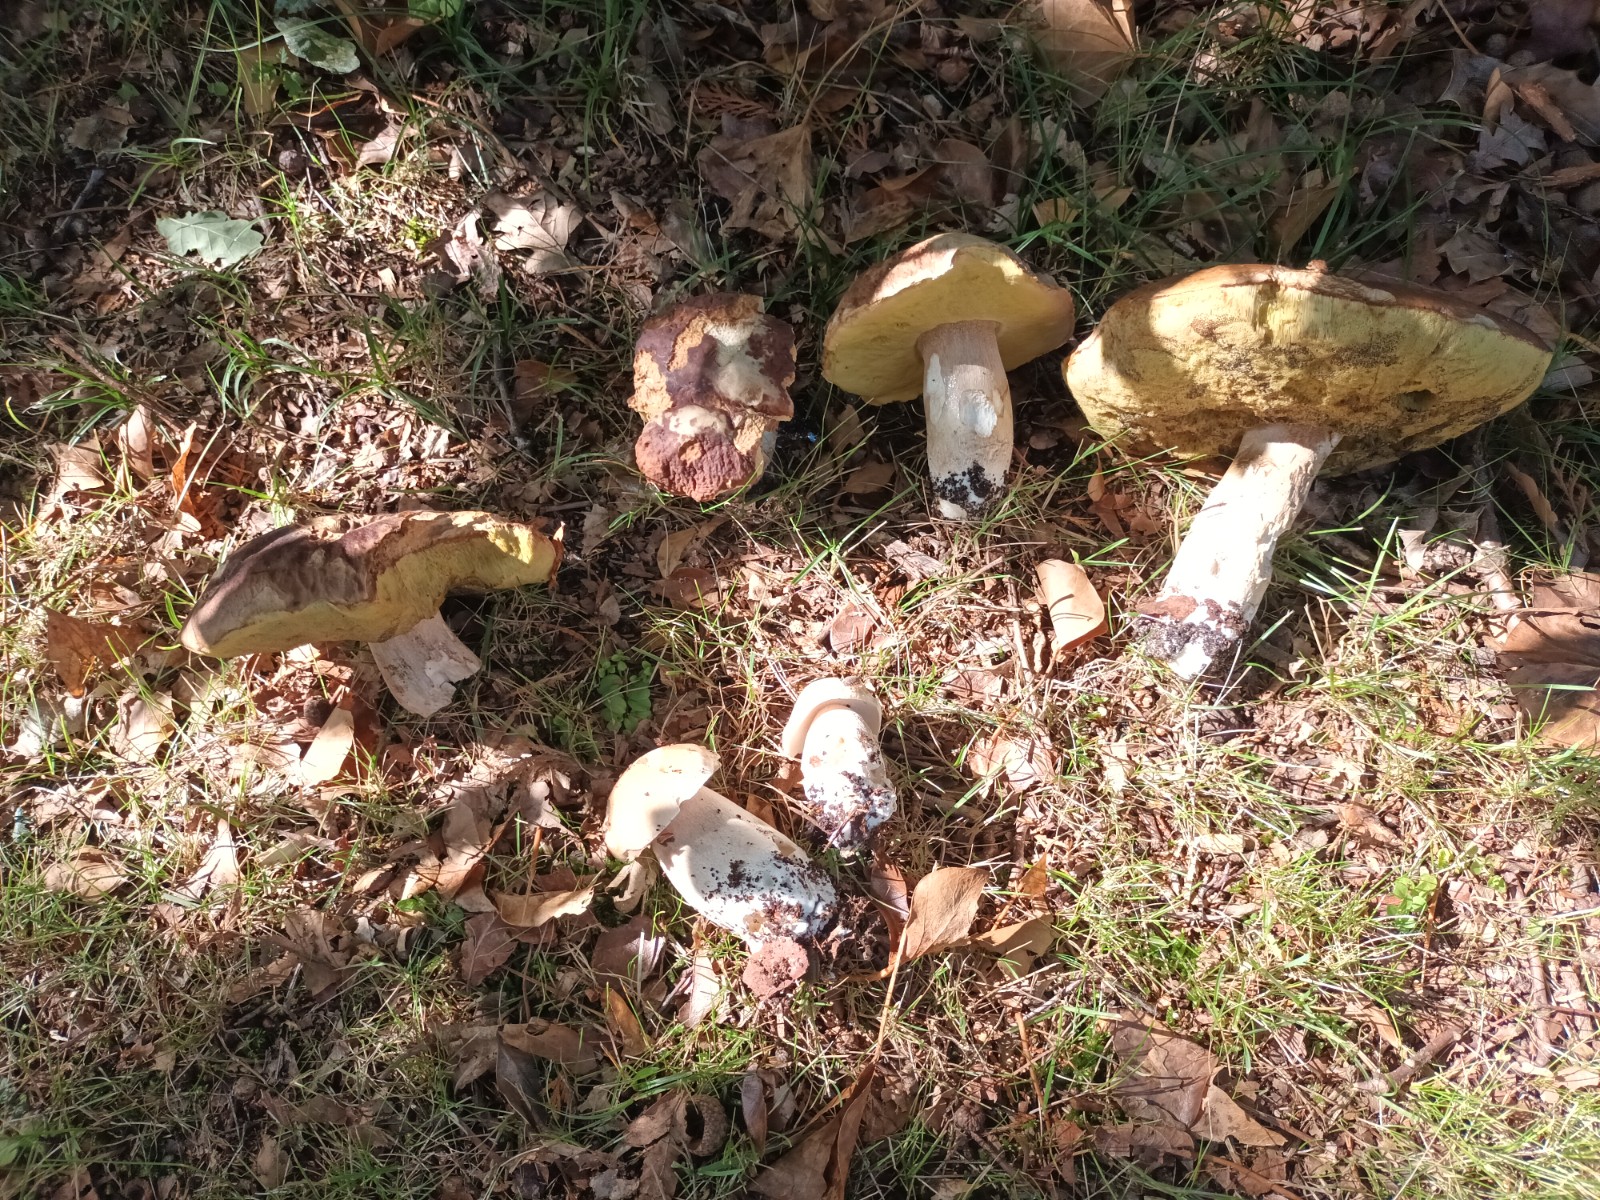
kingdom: Fungi
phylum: Basidiomycota
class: Agaricomycetes
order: Boletales
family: Boletaceae
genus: Boletus
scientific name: Boletus edulis
